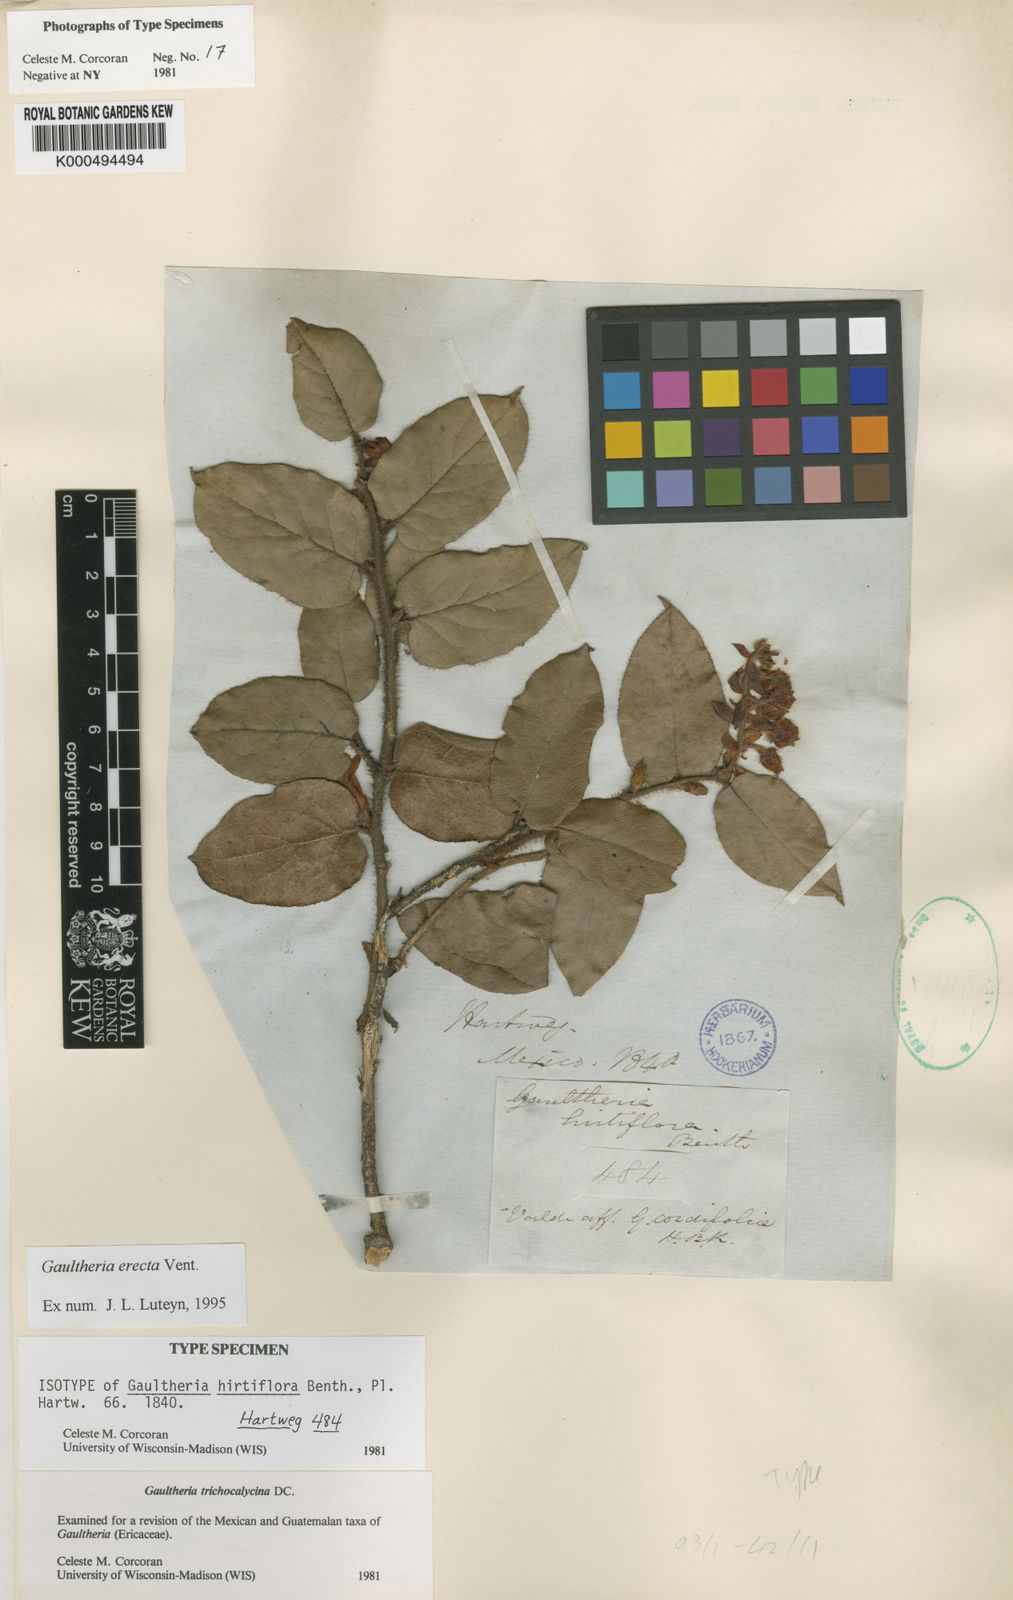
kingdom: Plantae
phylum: Tracheophyta
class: Magnoliopsida
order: Ericales
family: Ericaceae
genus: Gaultheria
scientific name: Gaultheria erecta
